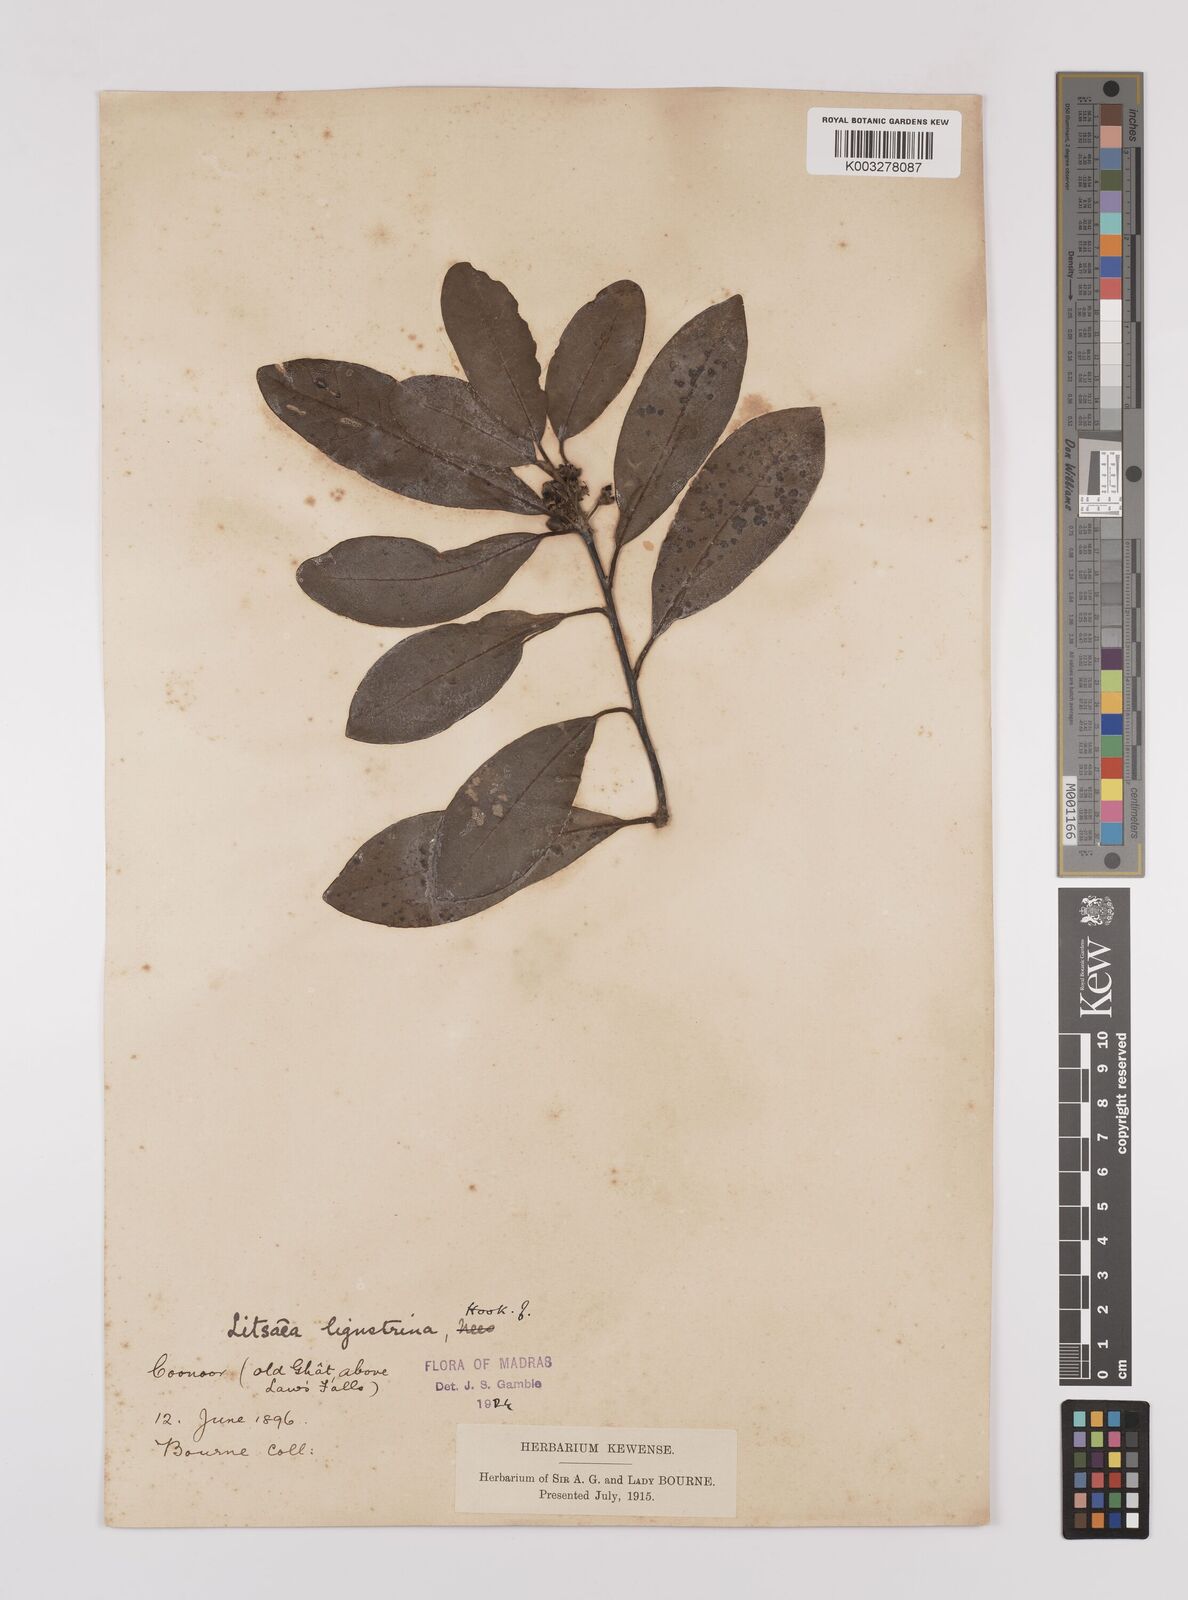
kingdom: Plantae
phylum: Tracheophyta
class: Magnoliopsida
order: Laurales
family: Lauraceae
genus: Litsea
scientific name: Litsea ligustrina
